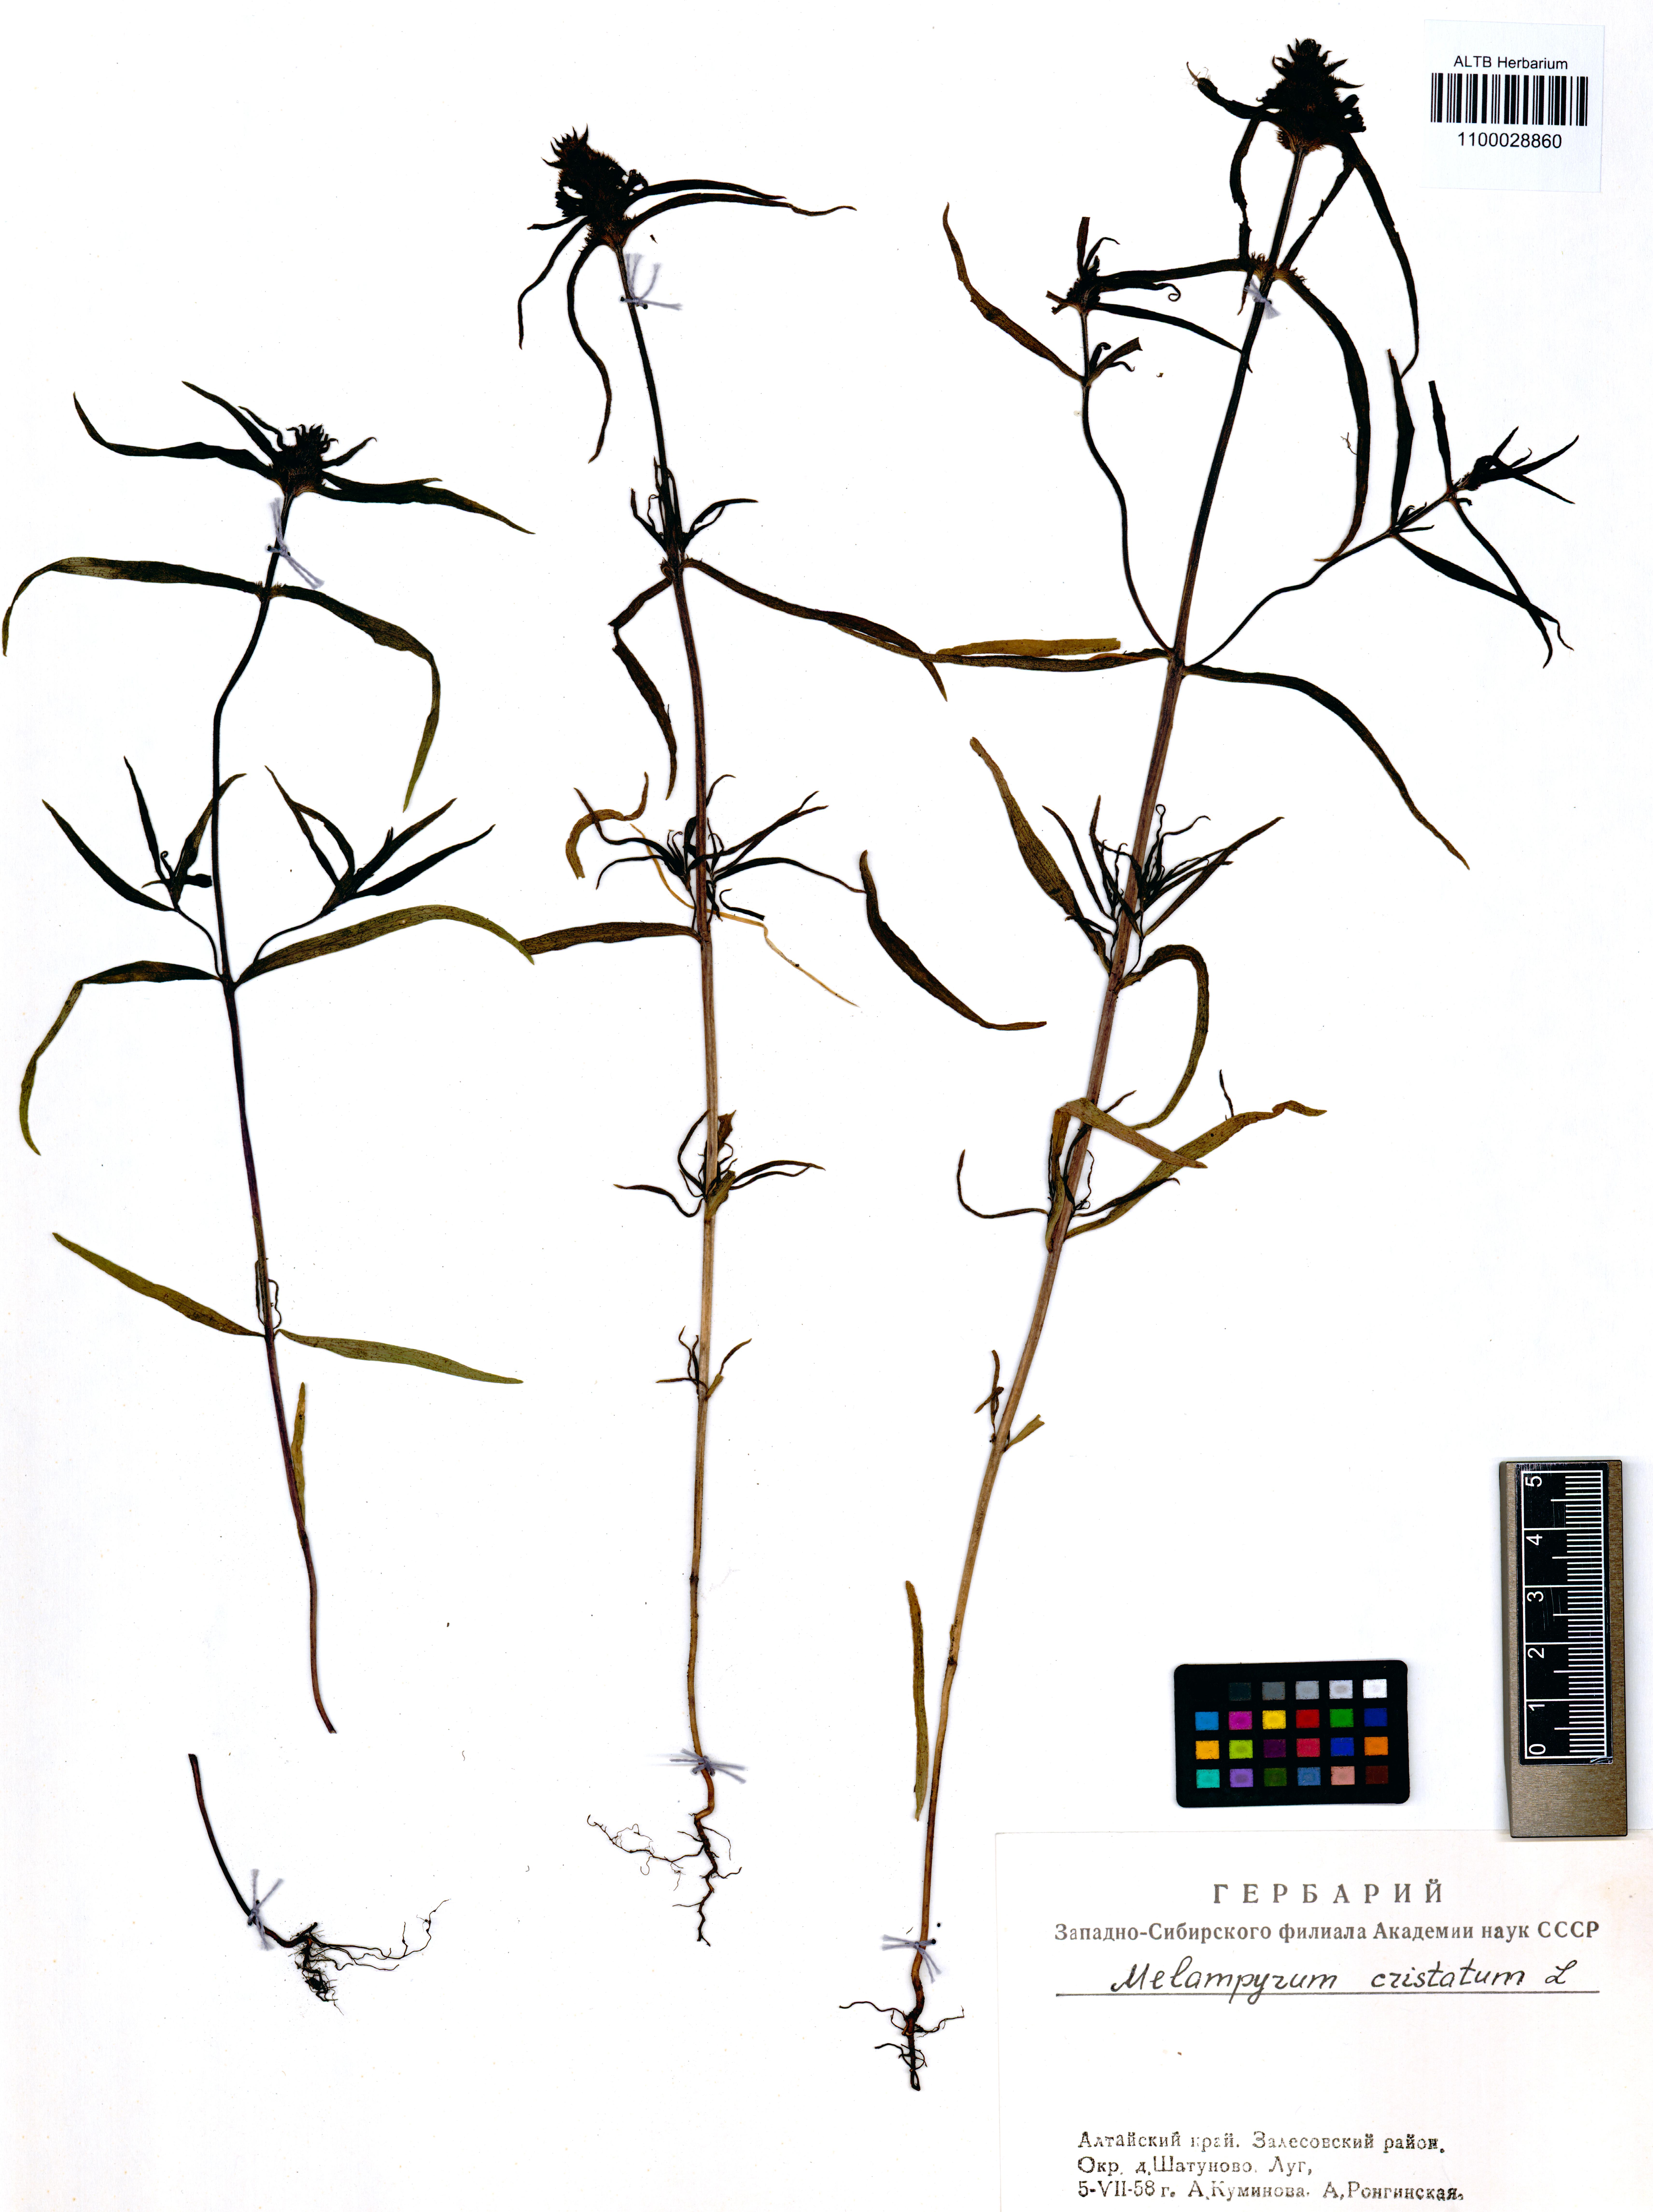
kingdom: Plantae
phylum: Tracheophyta
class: Magnoliopsida
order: Lamiales
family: Orobanchaceae
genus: Melampyrum
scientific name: Melampyrum cristatum
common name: Crested cow-wheat
